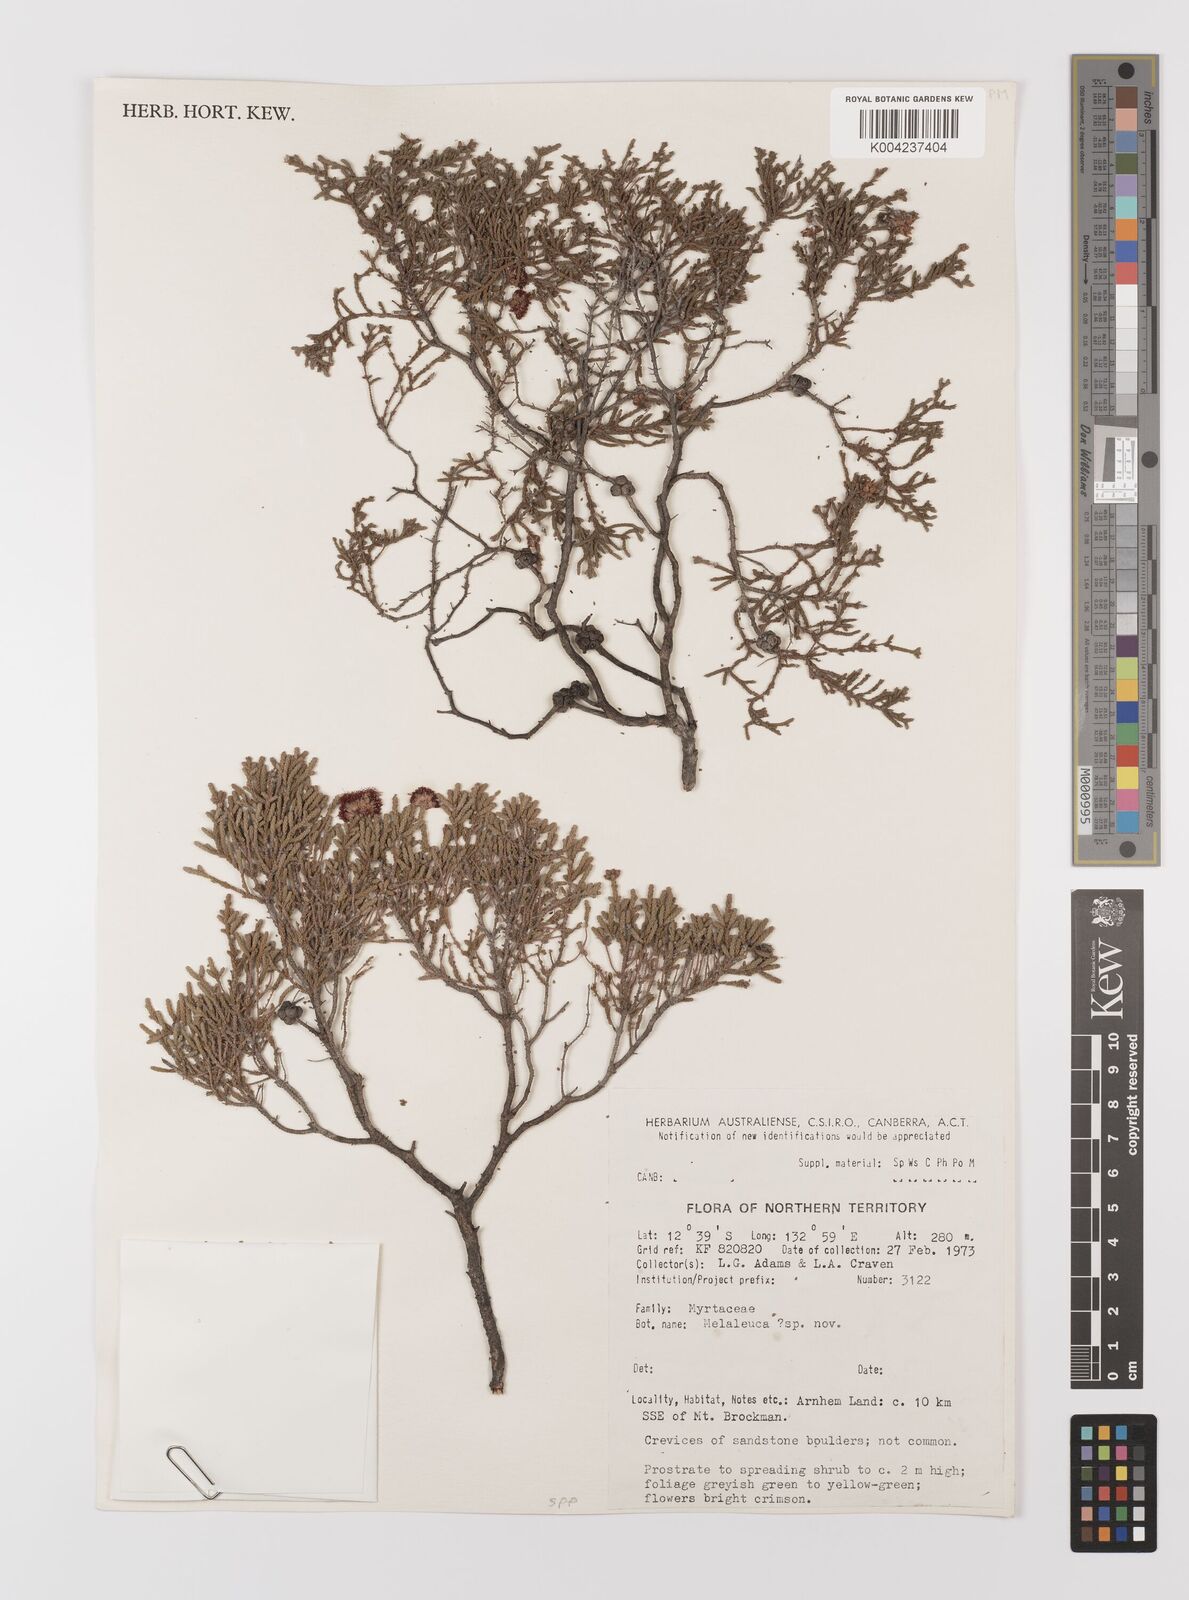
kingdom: Plantae
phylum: Tracheophyta
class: Magnoliopsida
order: Myrtales
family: Myrtaceae
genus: Melaleuca
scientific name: Melaleuca
